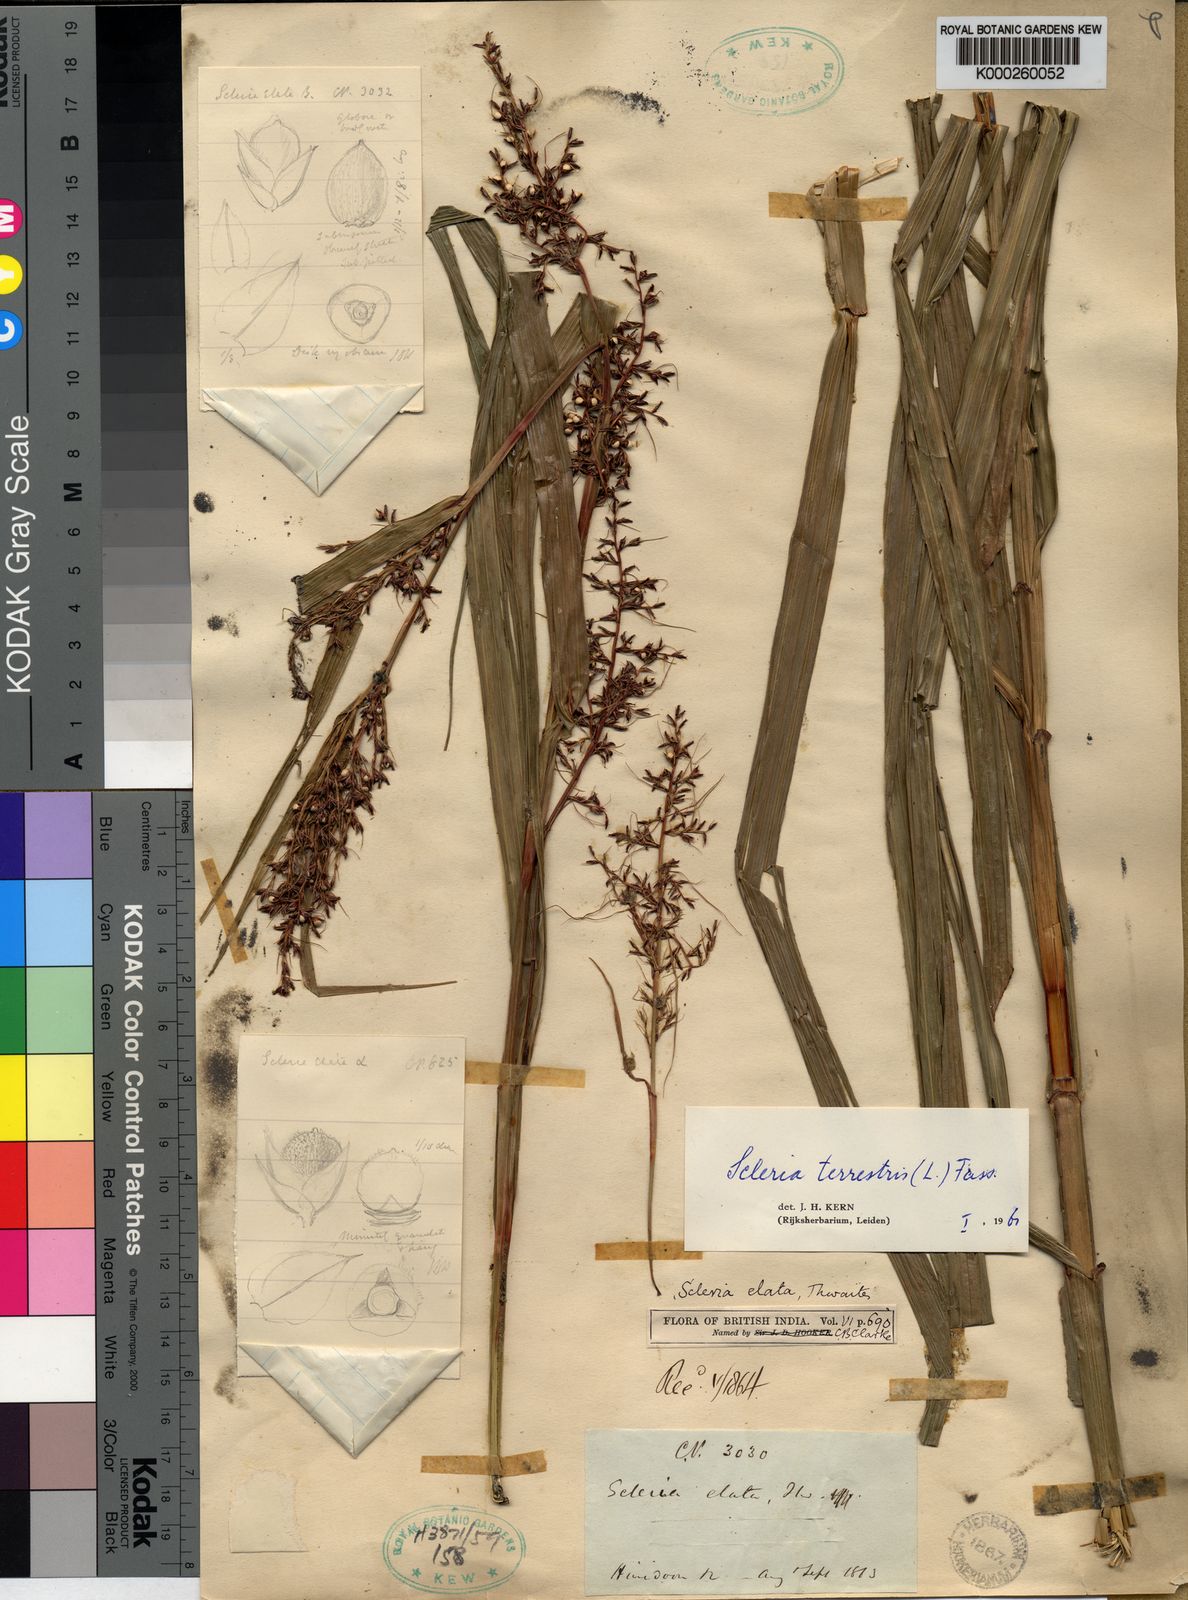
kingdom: Plantae
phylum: Tracheophyta
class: Liliopsida
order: Poales
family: Cyperaceae
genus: Scleria
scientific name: Scleria terrestris
